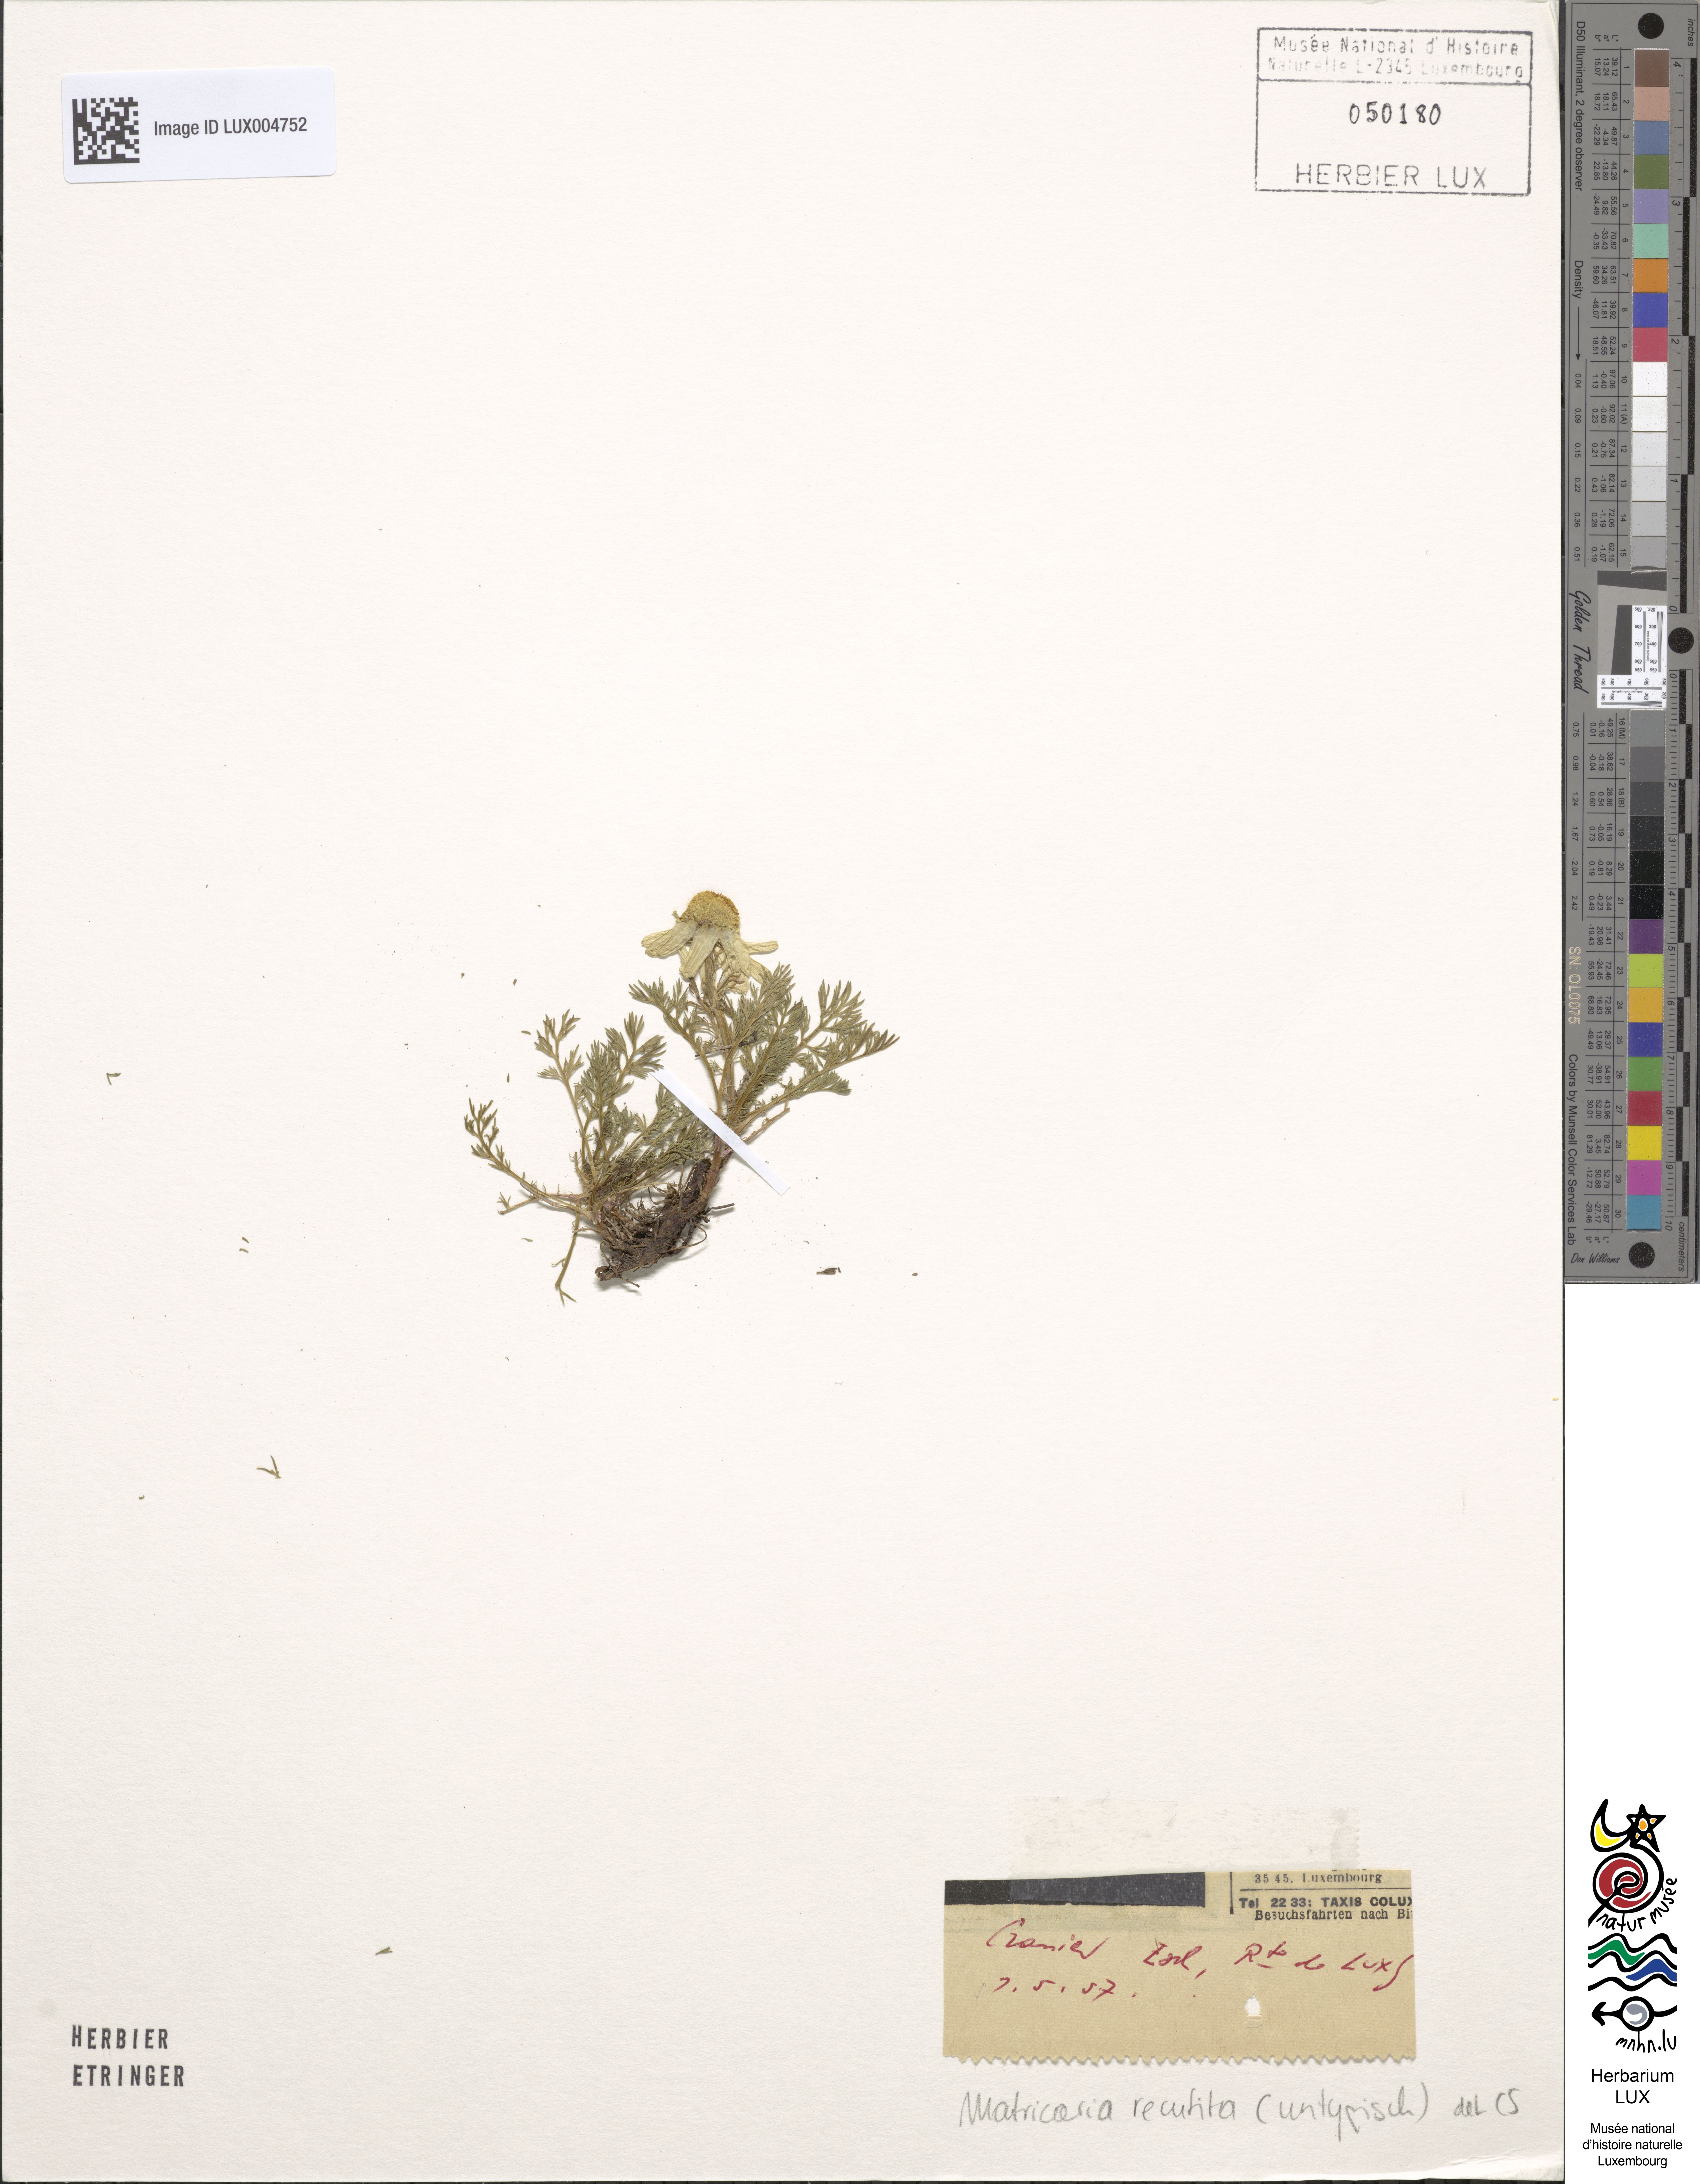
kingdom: Plantae
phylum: Tracheophyta
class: Magnoliopsida
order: Asterales
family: Asteraceae
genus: Matricaria
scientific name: Matricaria chamomilla
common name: Scented mayweed
